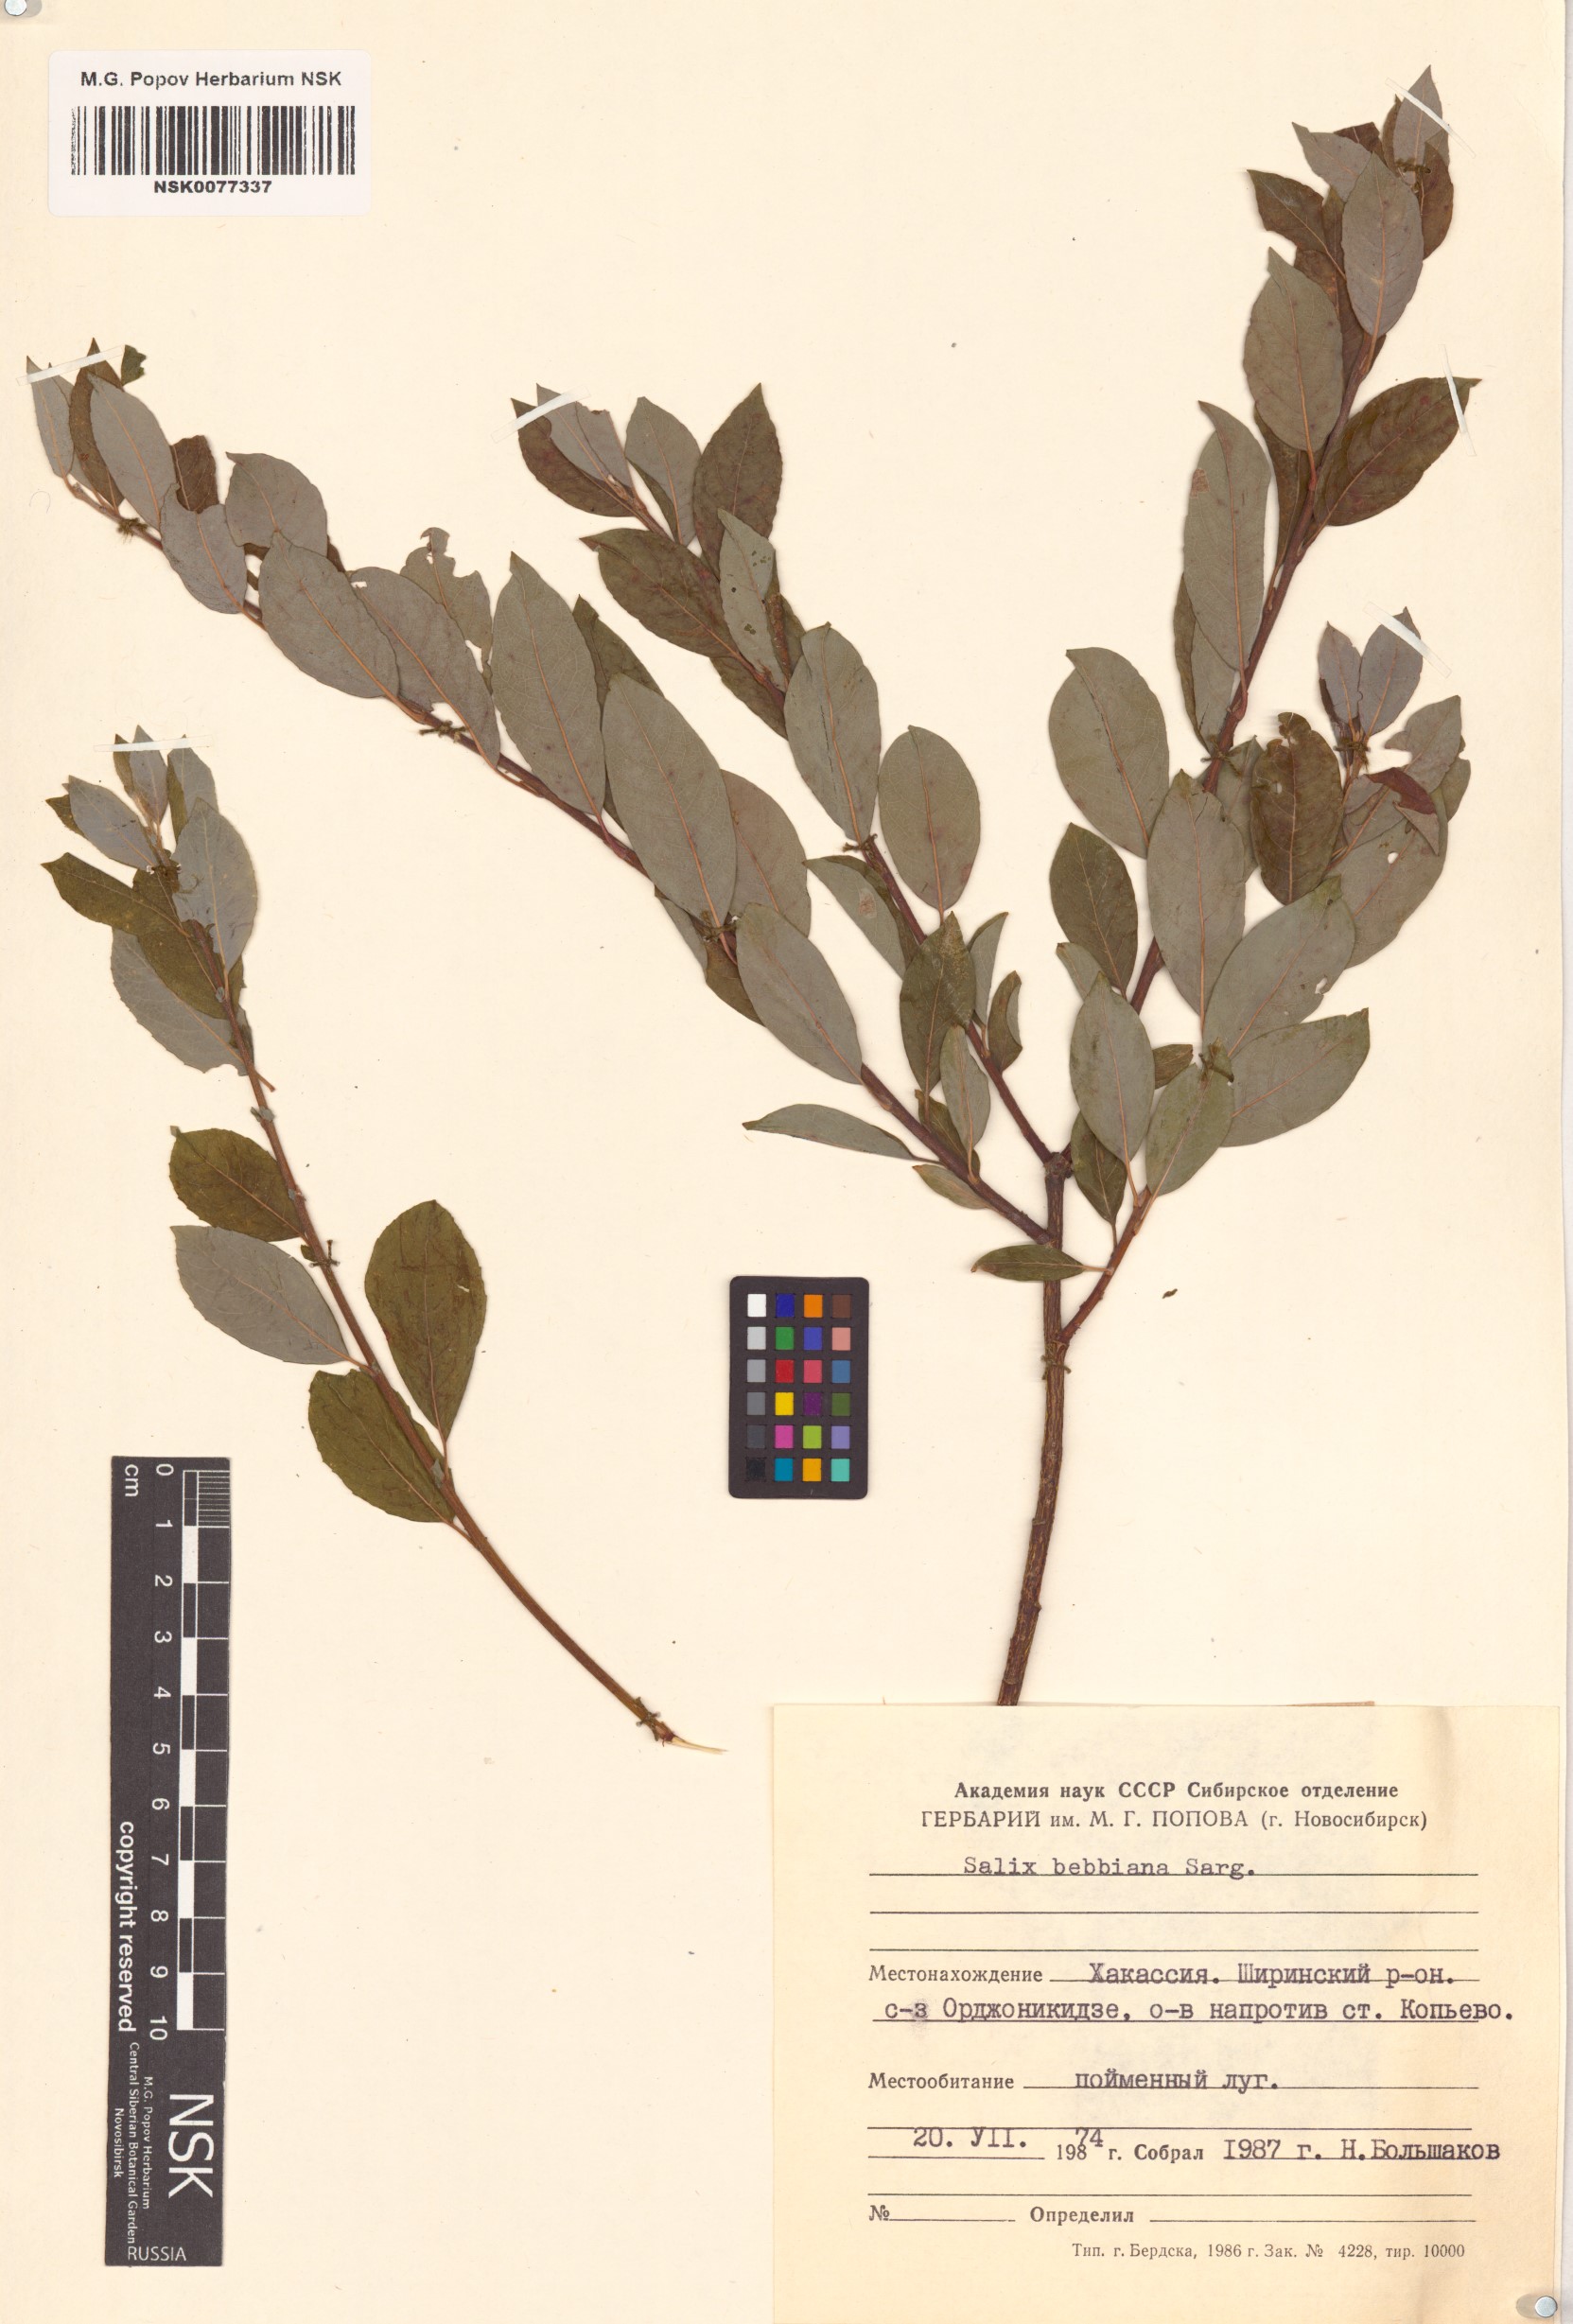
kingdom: Plantae
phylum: Tracheophyta
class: Magnoliopsida
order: Malpighiales
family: Salicaceae
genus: Salix
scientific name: Salix bebbiana
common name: Bebb's willow
